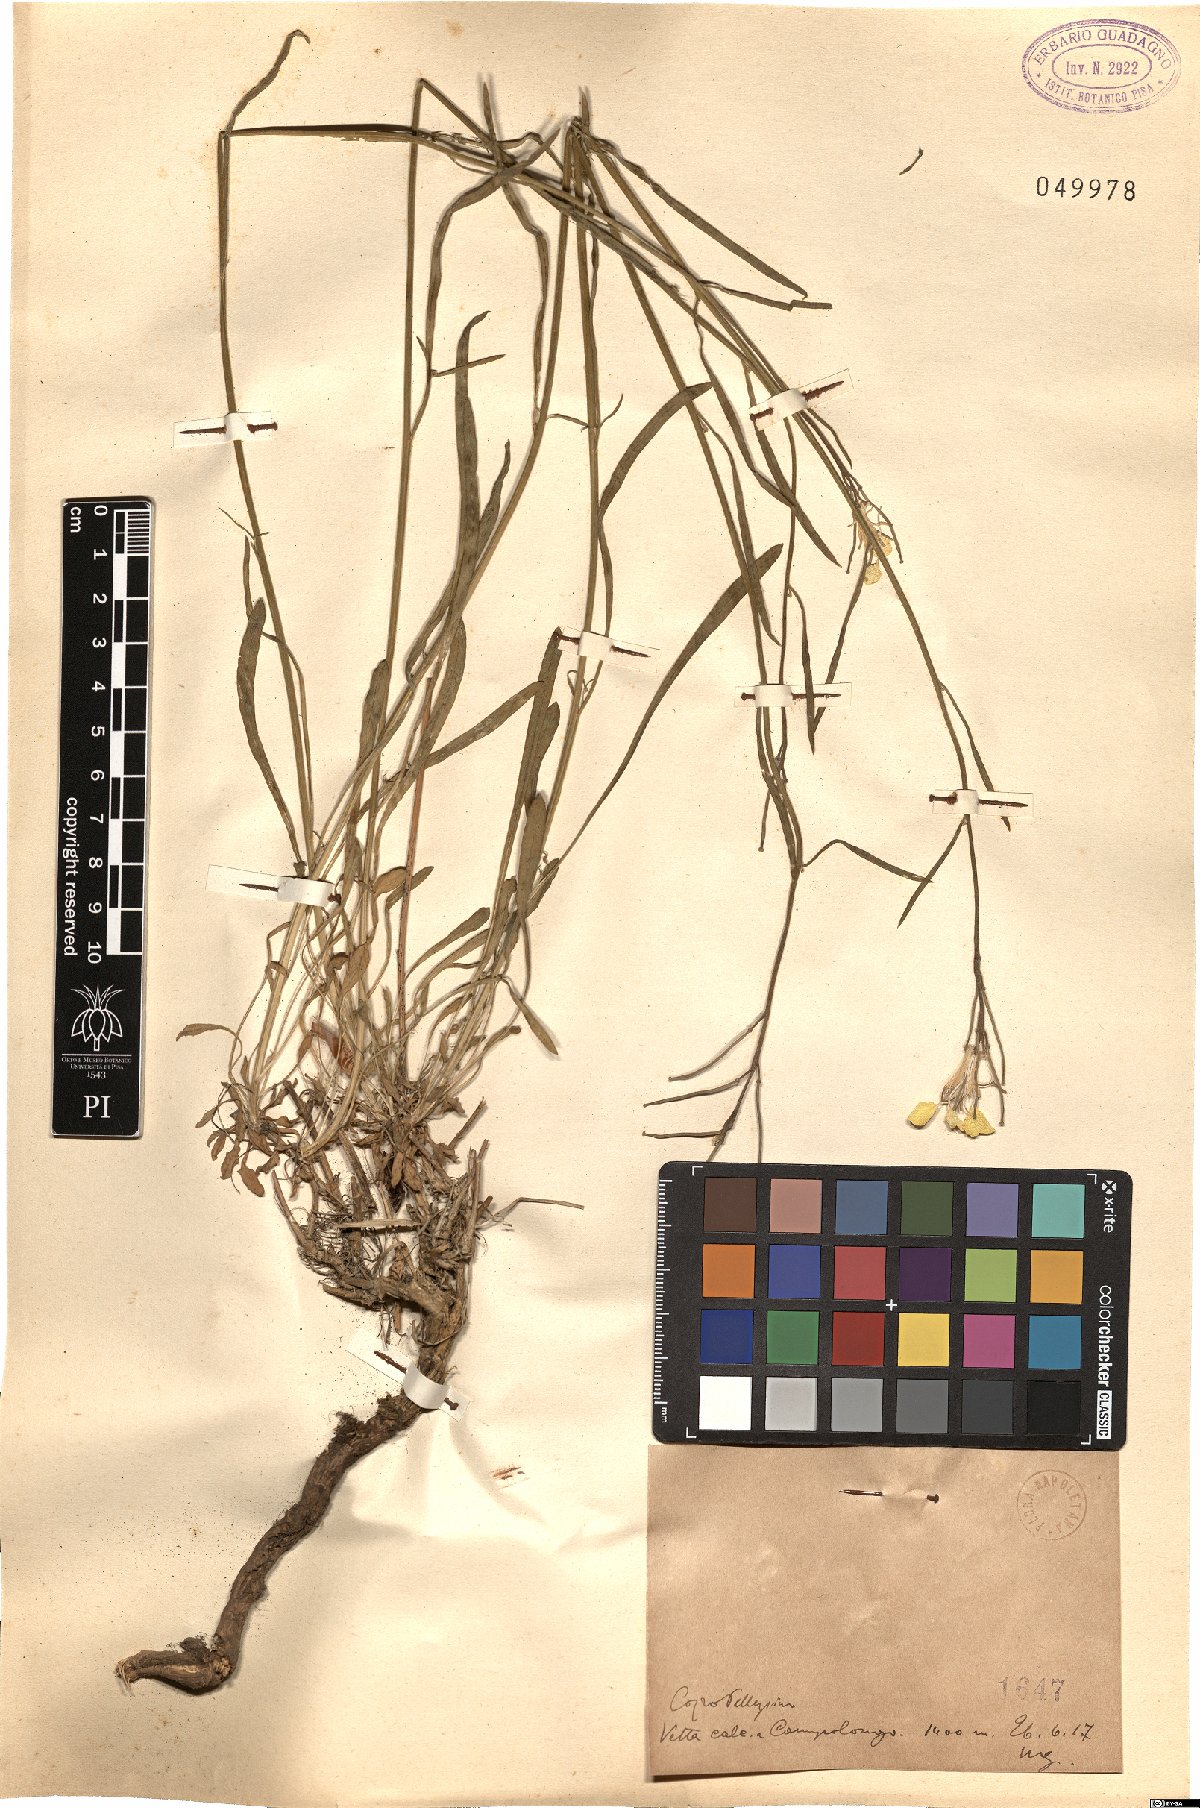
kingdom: Plantae
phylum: Tracheophyta
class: Magnoliopsida
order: Brassicales
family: Brassicaceae
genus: Erysimum
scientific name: Erysimum
